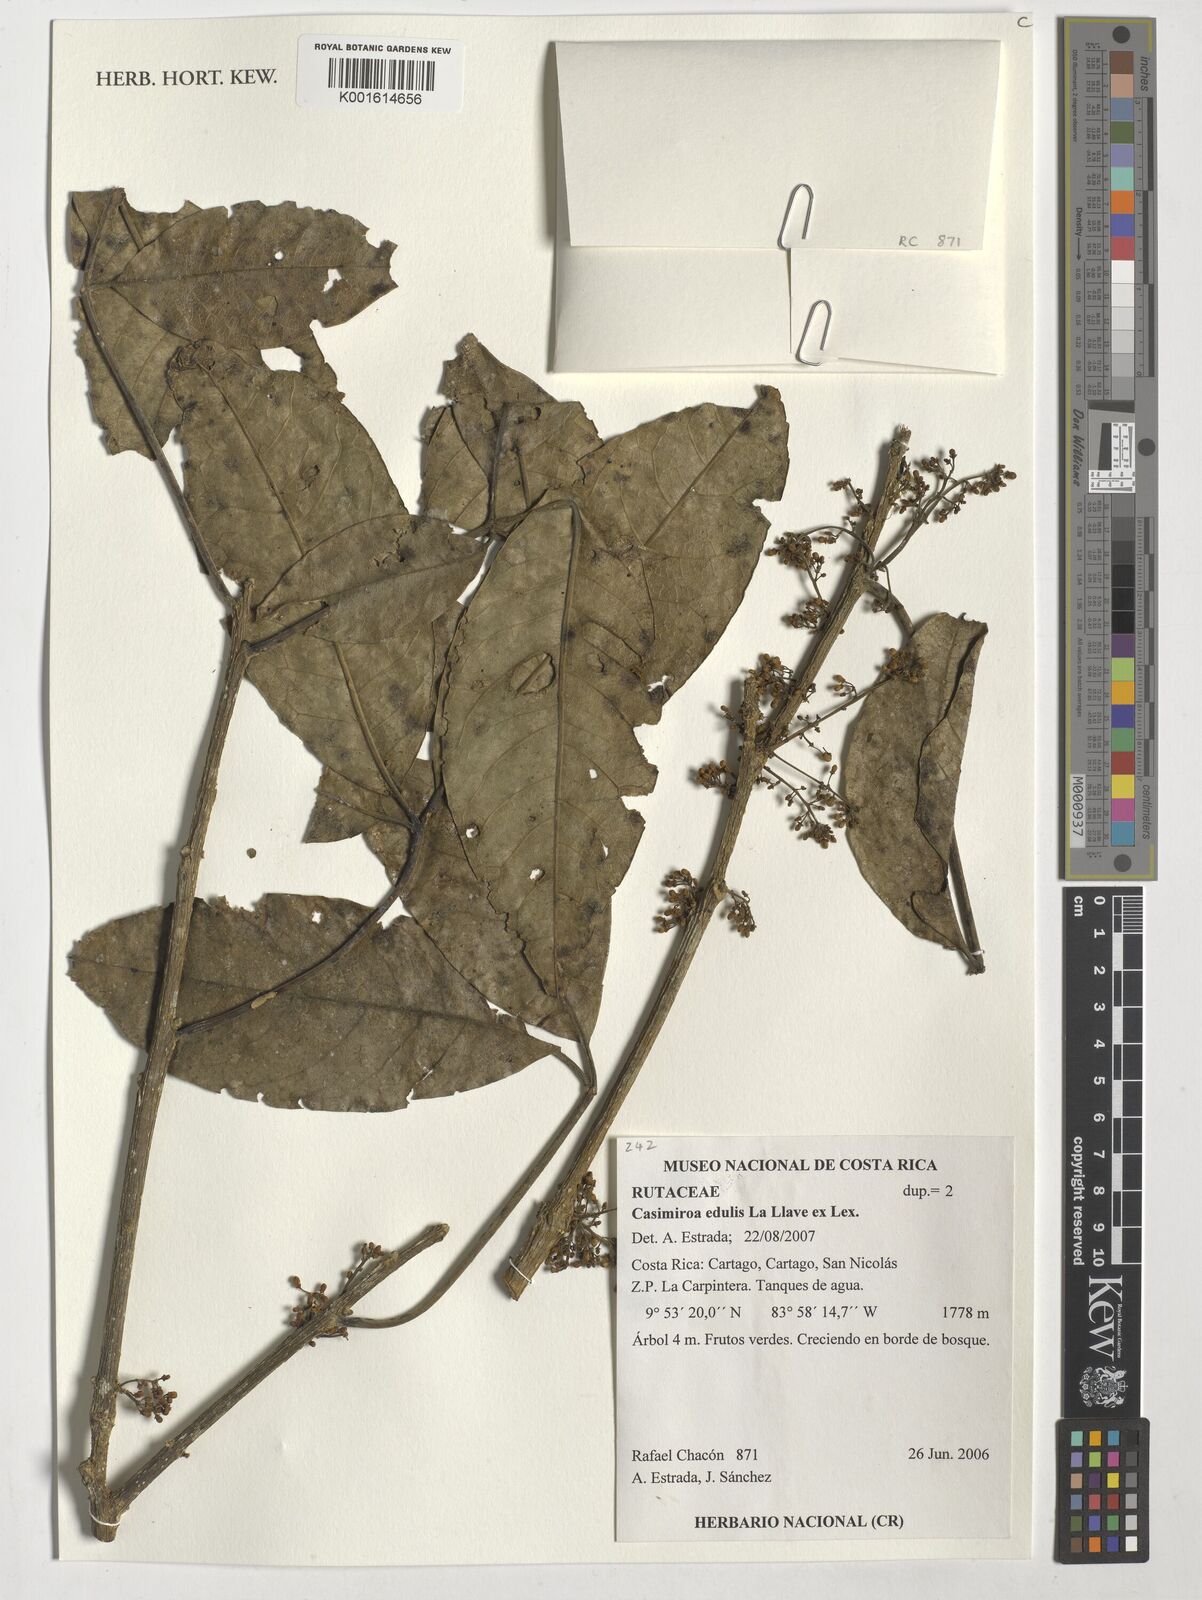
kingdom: Plantae
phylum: Tracheophyta
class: Magnoliopsida
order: Sapindales
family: Rutaceae
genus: Casimiroa
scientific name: Casimiroa edulis
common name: Mexican-apple
